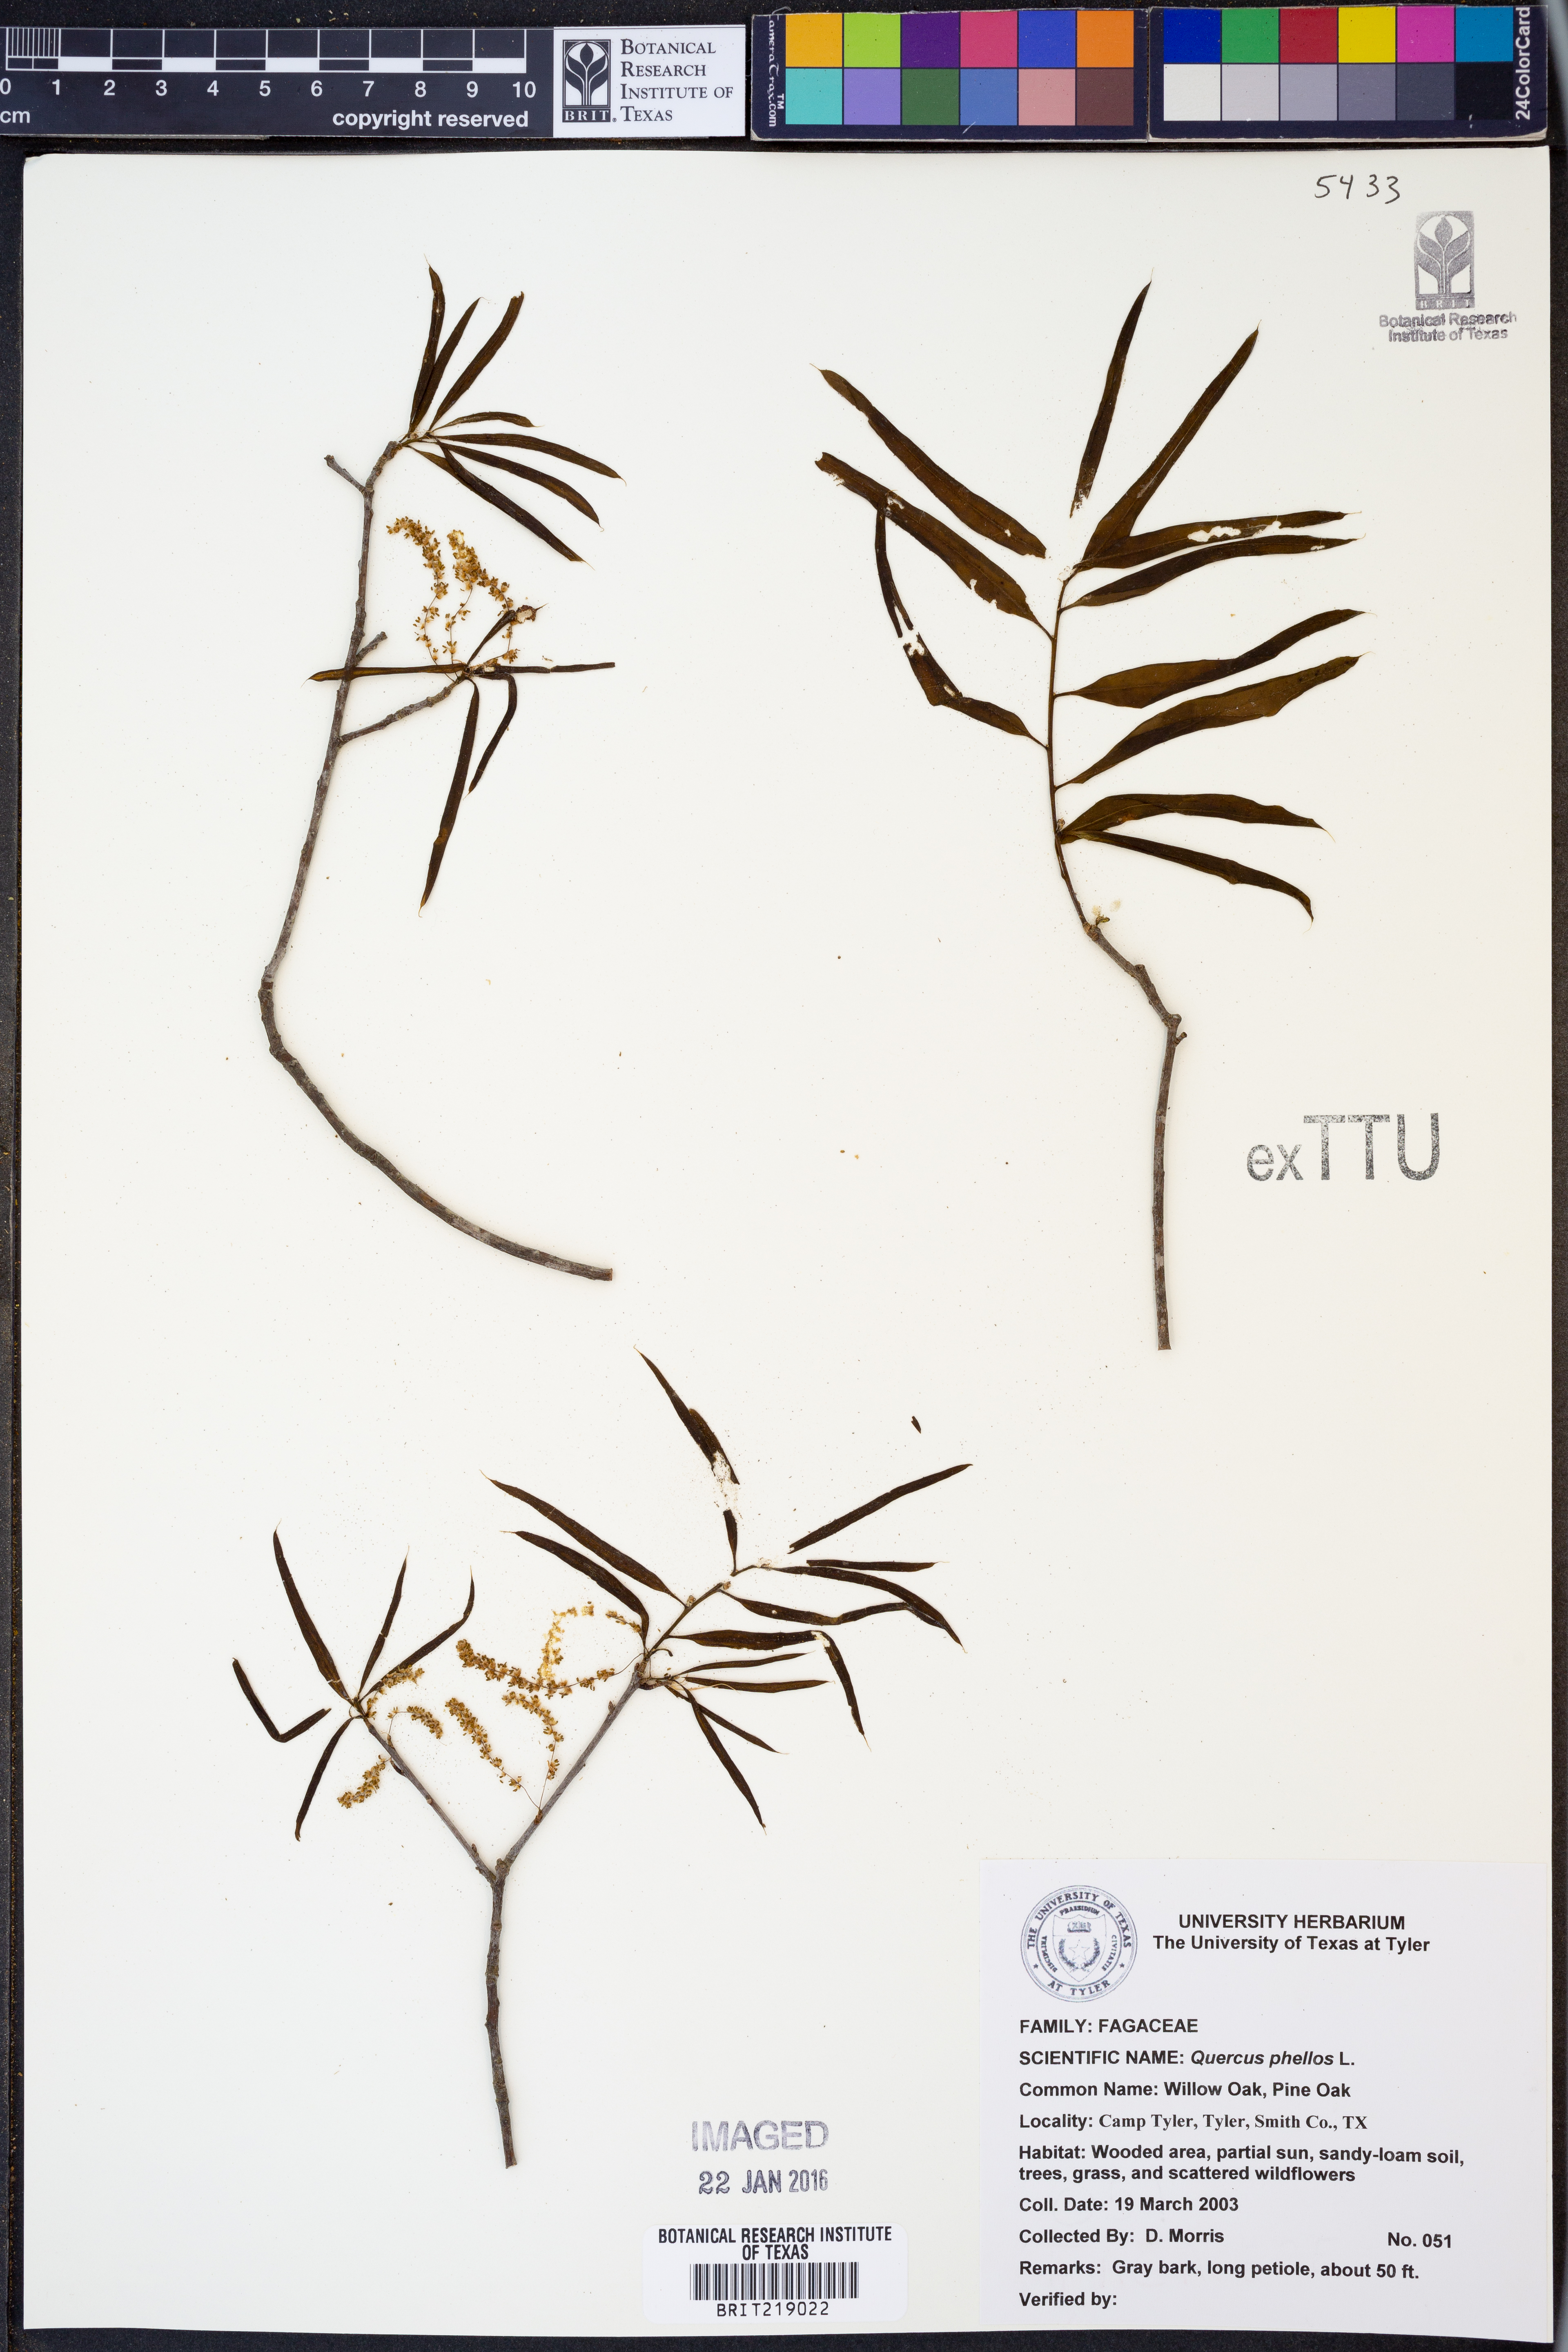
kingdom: Plantae
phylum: Tracheophyta
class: Magnoliopsida
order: Fagales
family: Fagaceae
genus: Quercus
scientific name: Quercus phellos
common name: Willow oak
